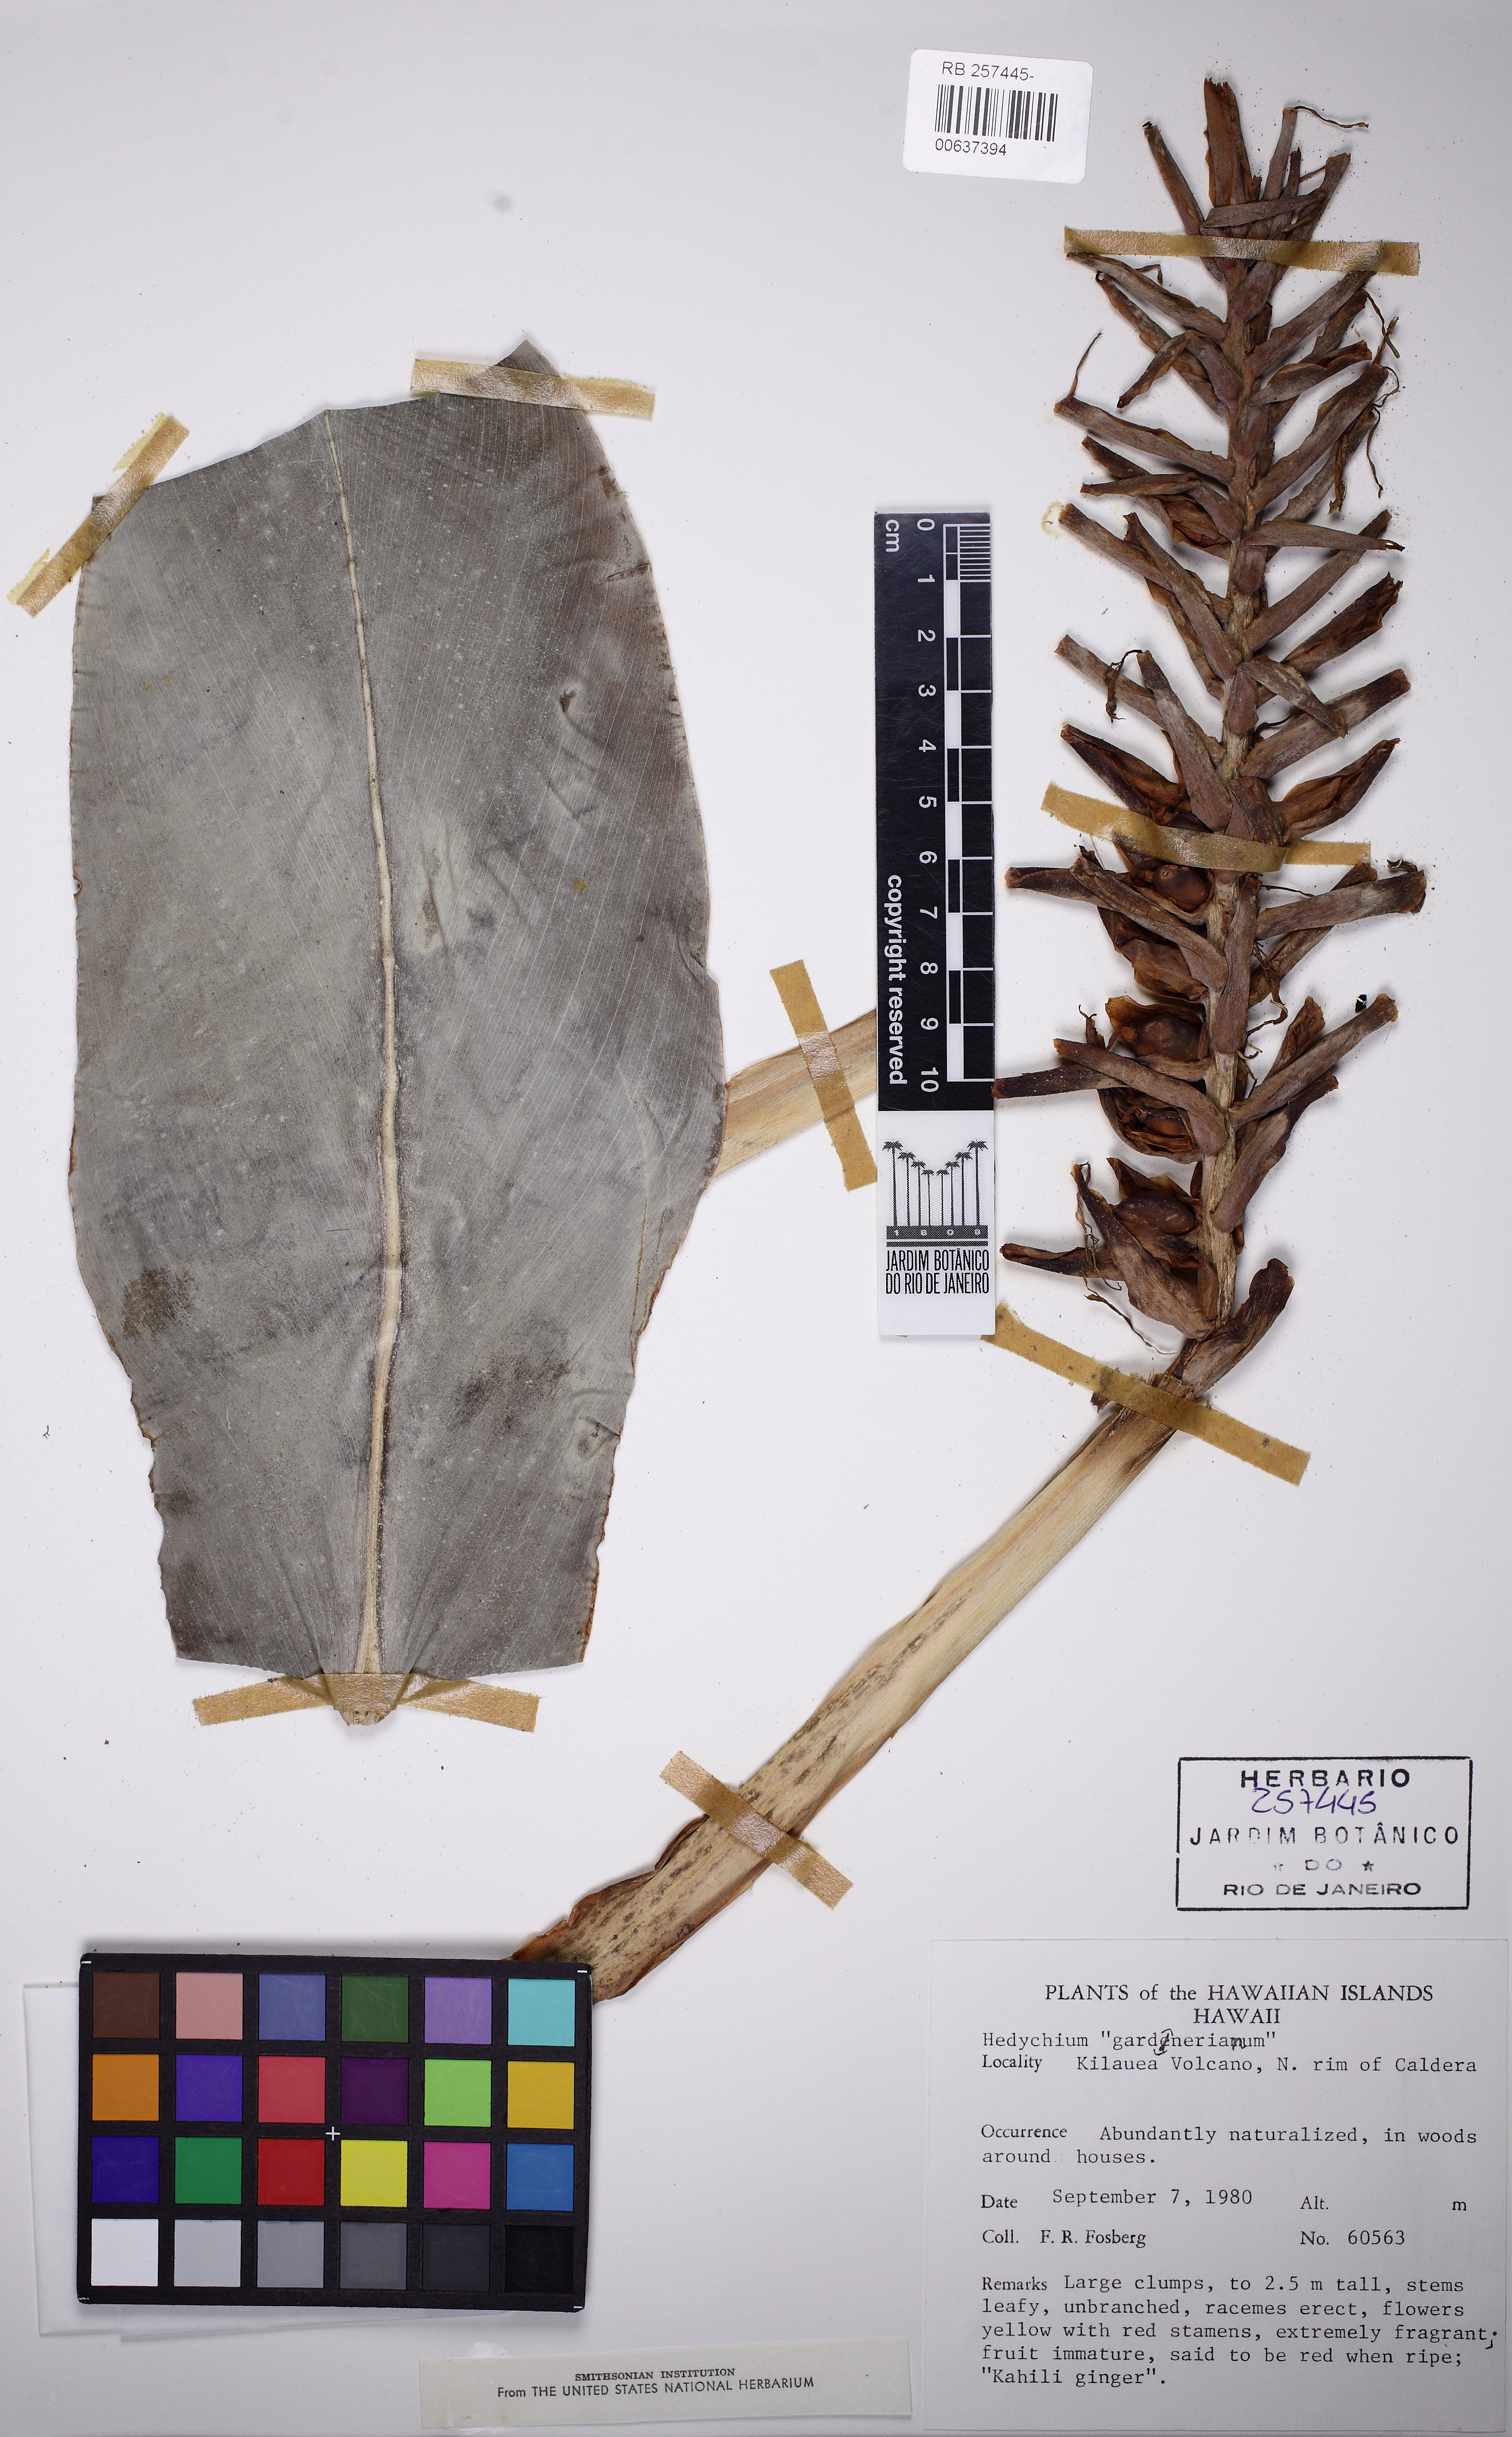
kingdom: Plantae
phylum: Tracheophyta
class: Liliopsida
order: Zingiberales
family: Zingiberaceae
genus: Hedychium
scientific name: Hedychium gardnerianum
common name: Himalayan ginger
